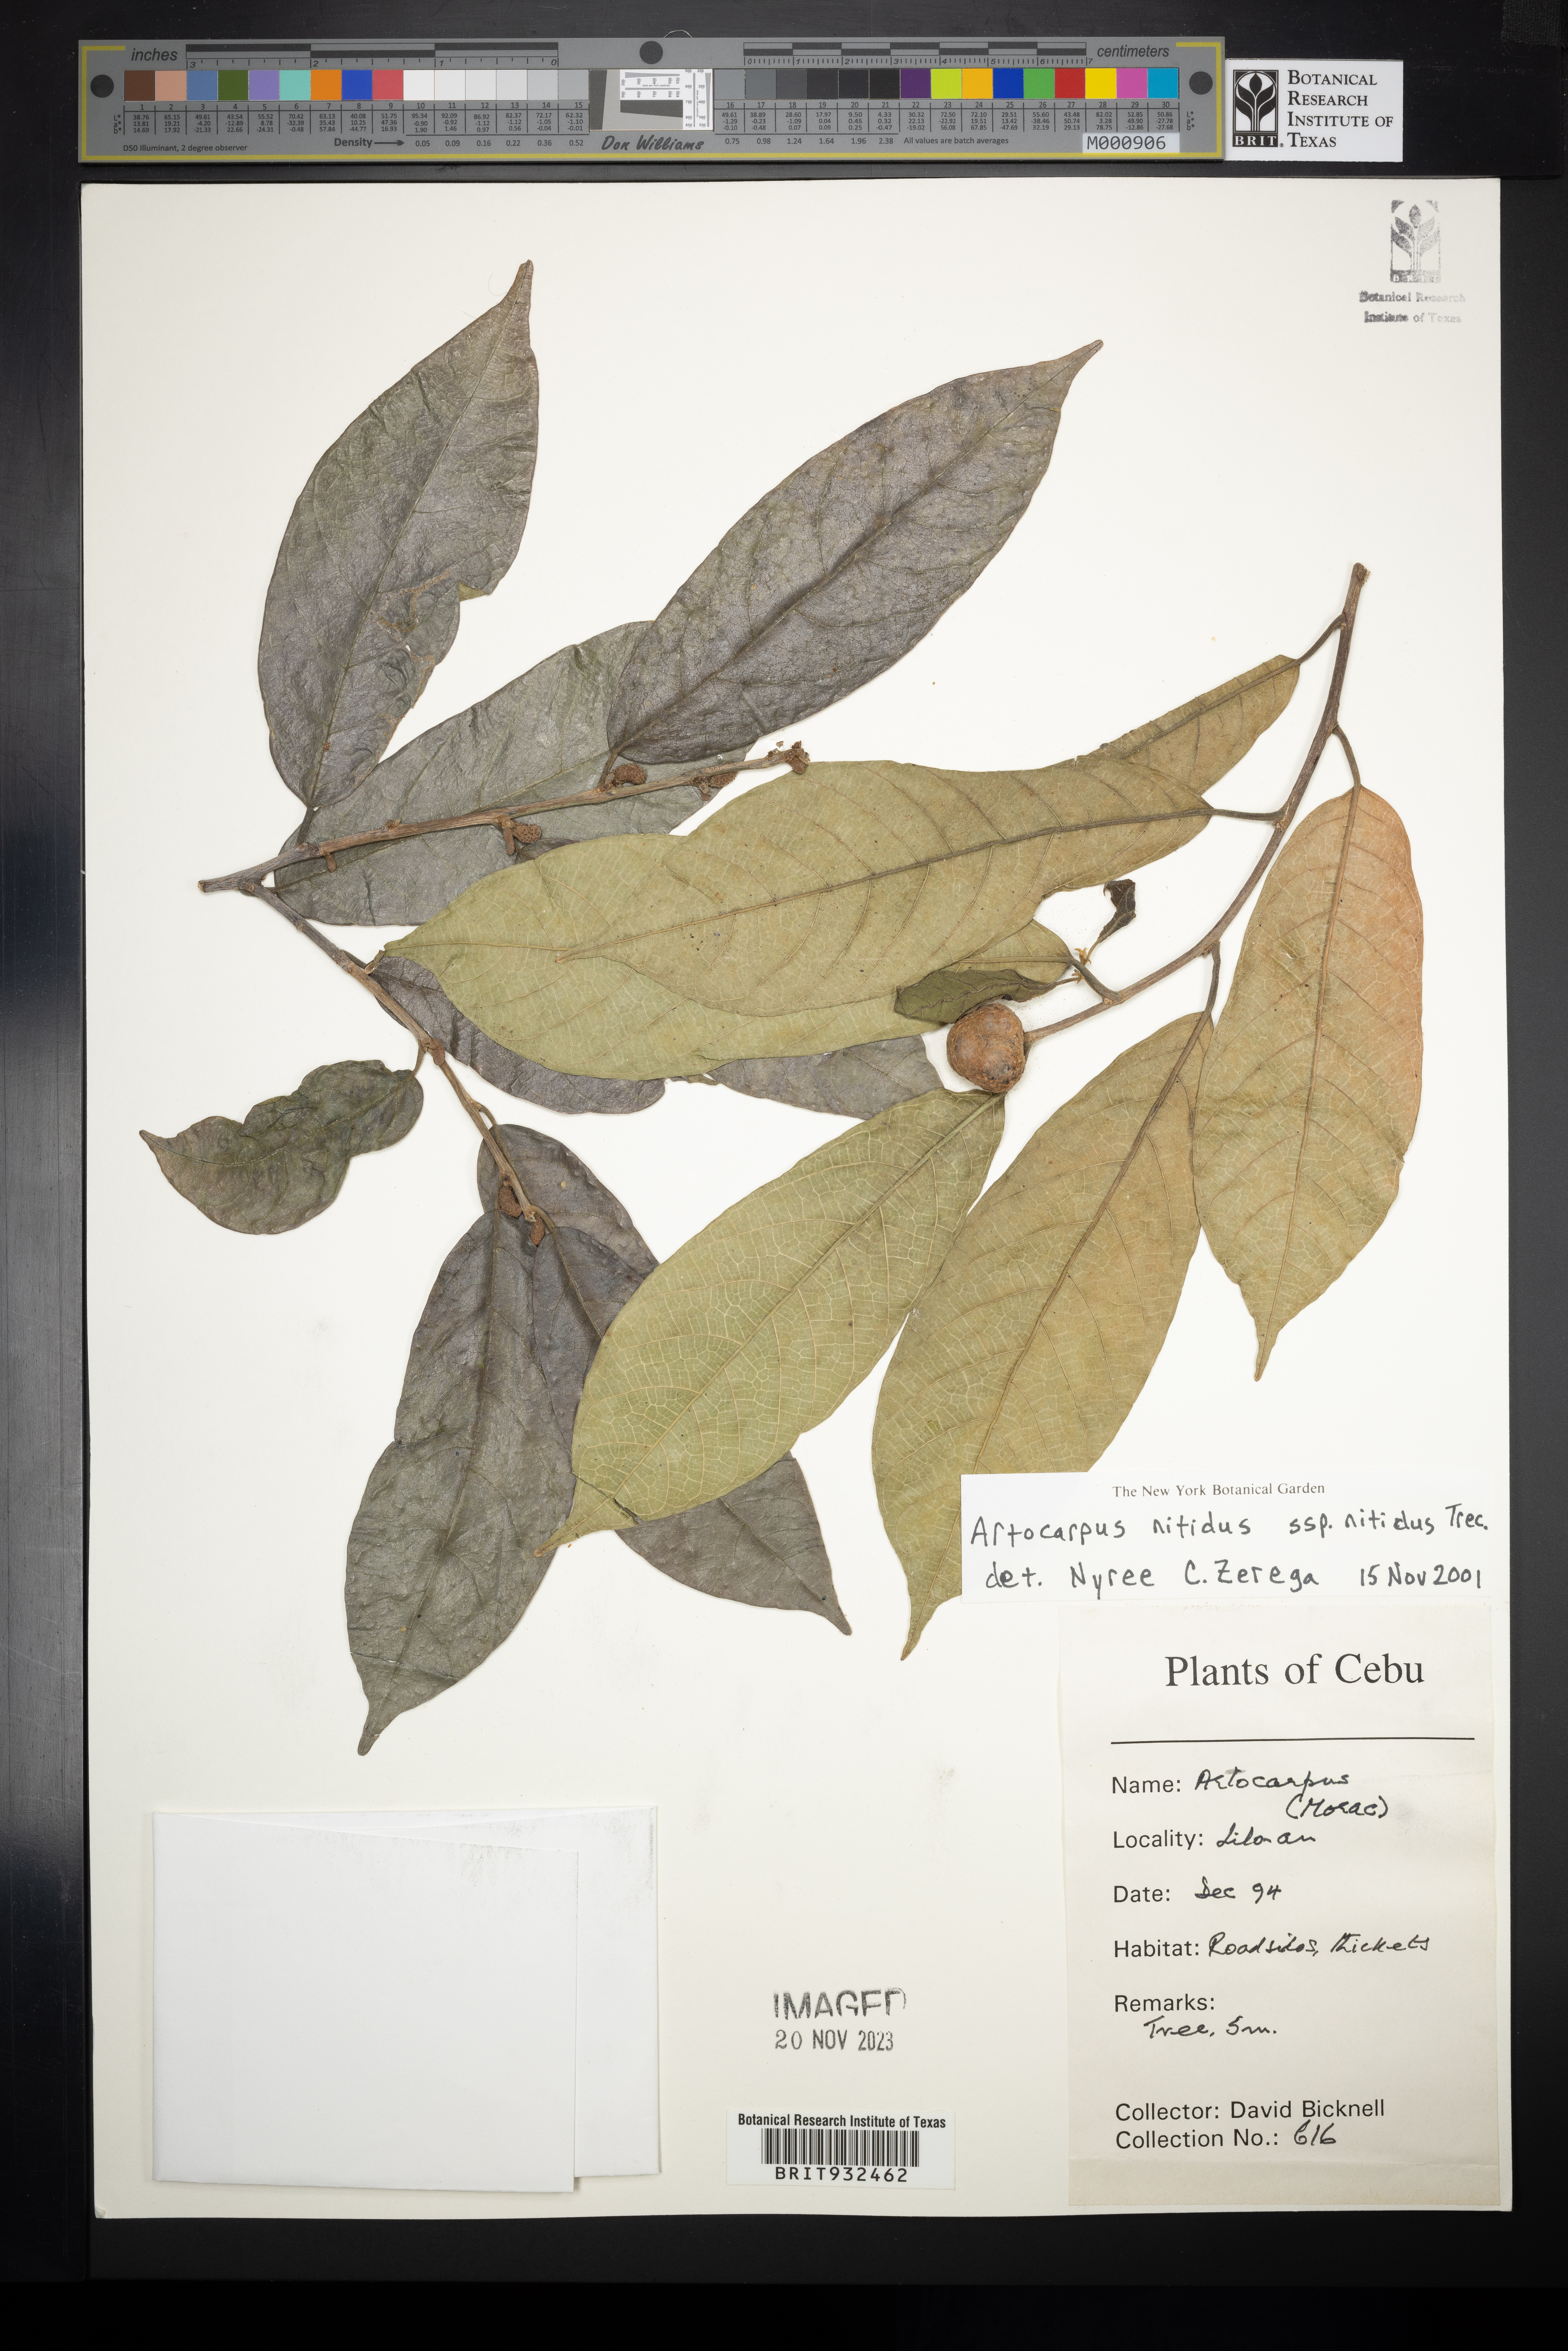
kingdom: Plantae
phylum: Tracheophyta
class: Magnoliopsida
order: Rosales
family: Moraceae
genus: Artocarpus
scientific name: Artocarpus
